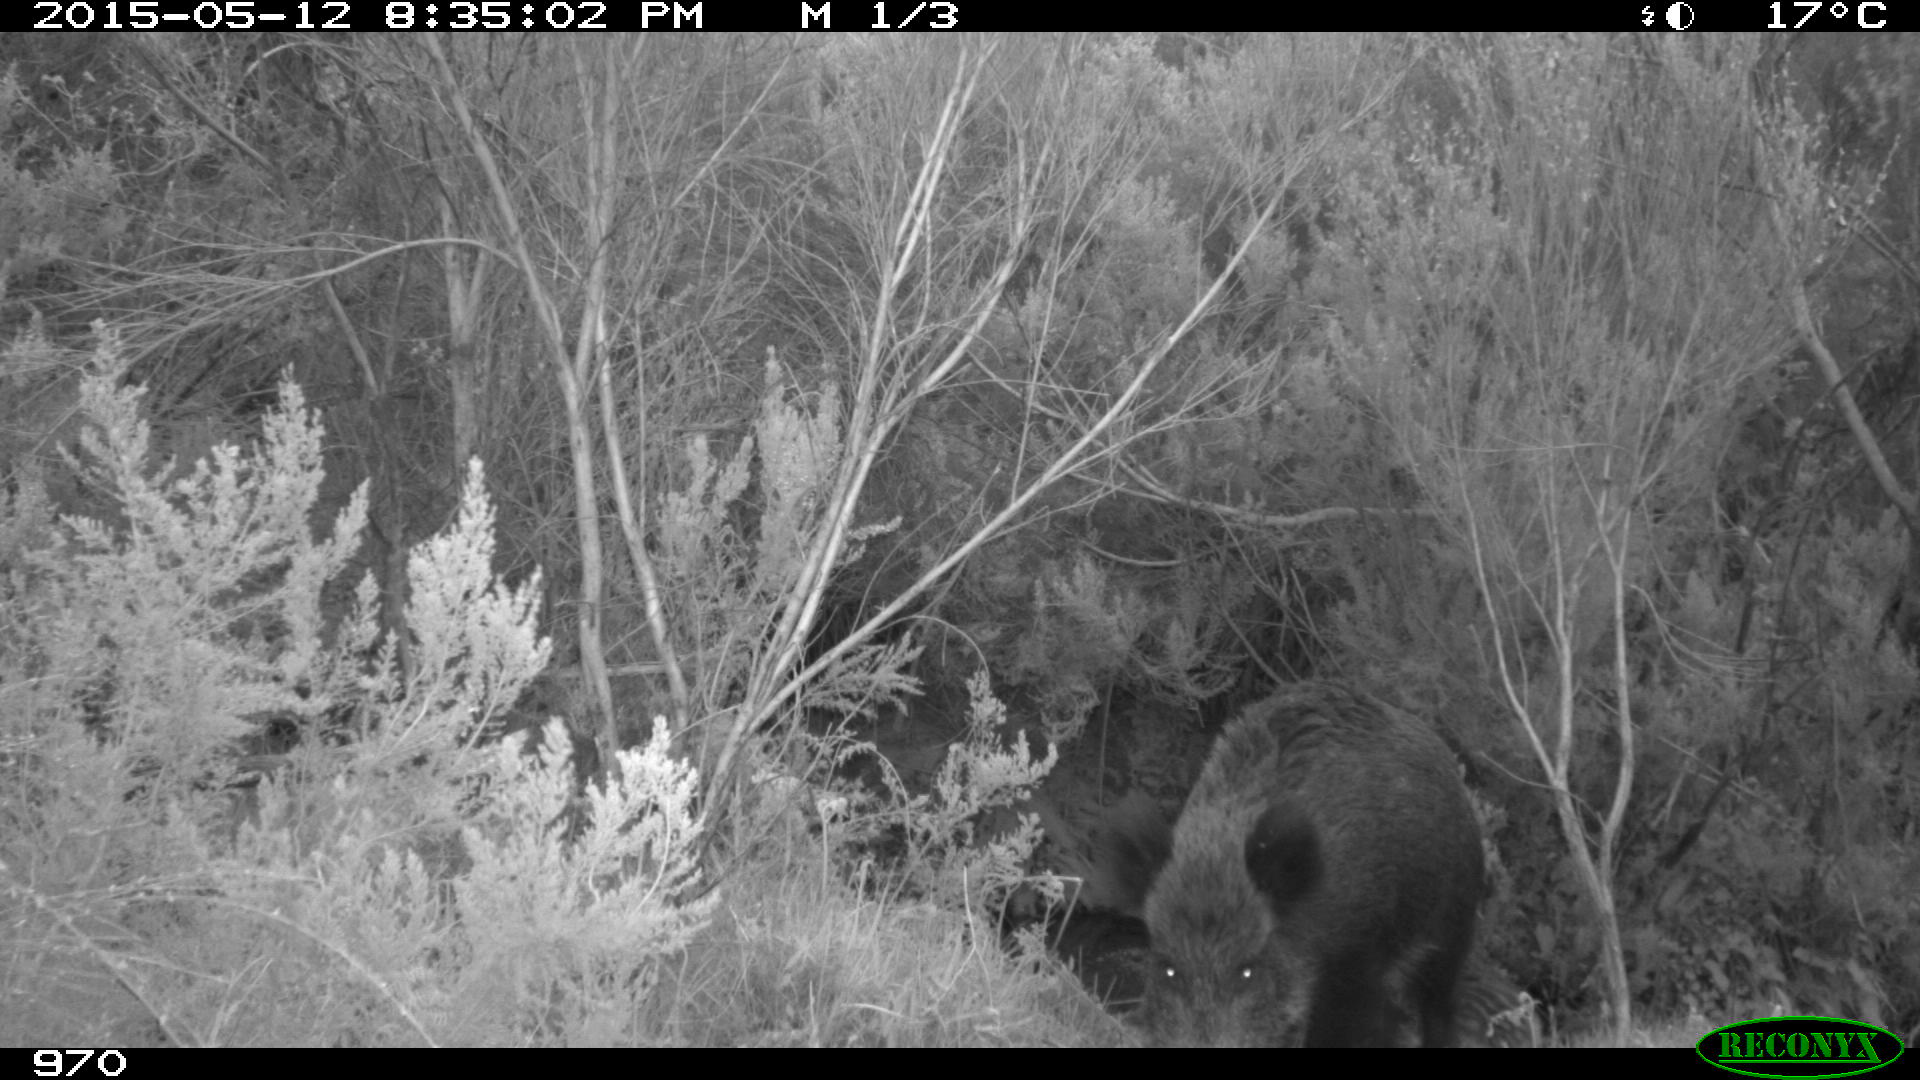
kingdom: Animalia
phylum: Chordata
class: Mammalia
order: Artiodactyla
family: Suidae
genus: Sus
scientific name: Sus scrofa
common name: Wild boar
